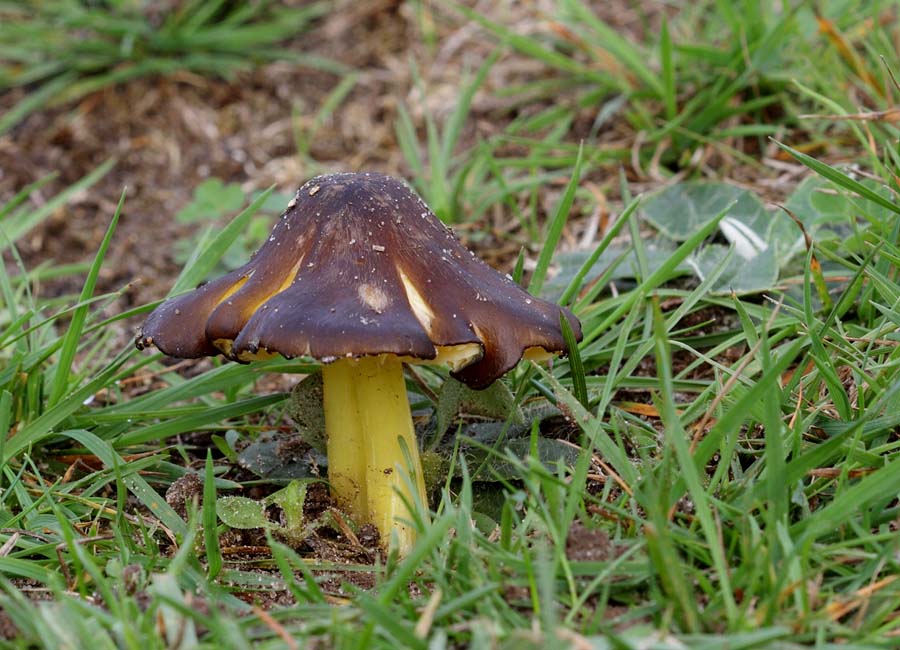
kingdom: Fungi
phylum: Basidiomycota
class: Agaricomycetes
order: Agaricales
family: Hygrophoraceae
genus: Hygrocybe
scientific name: Hygrocybe spadicea
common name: daddelbrun vokshat
